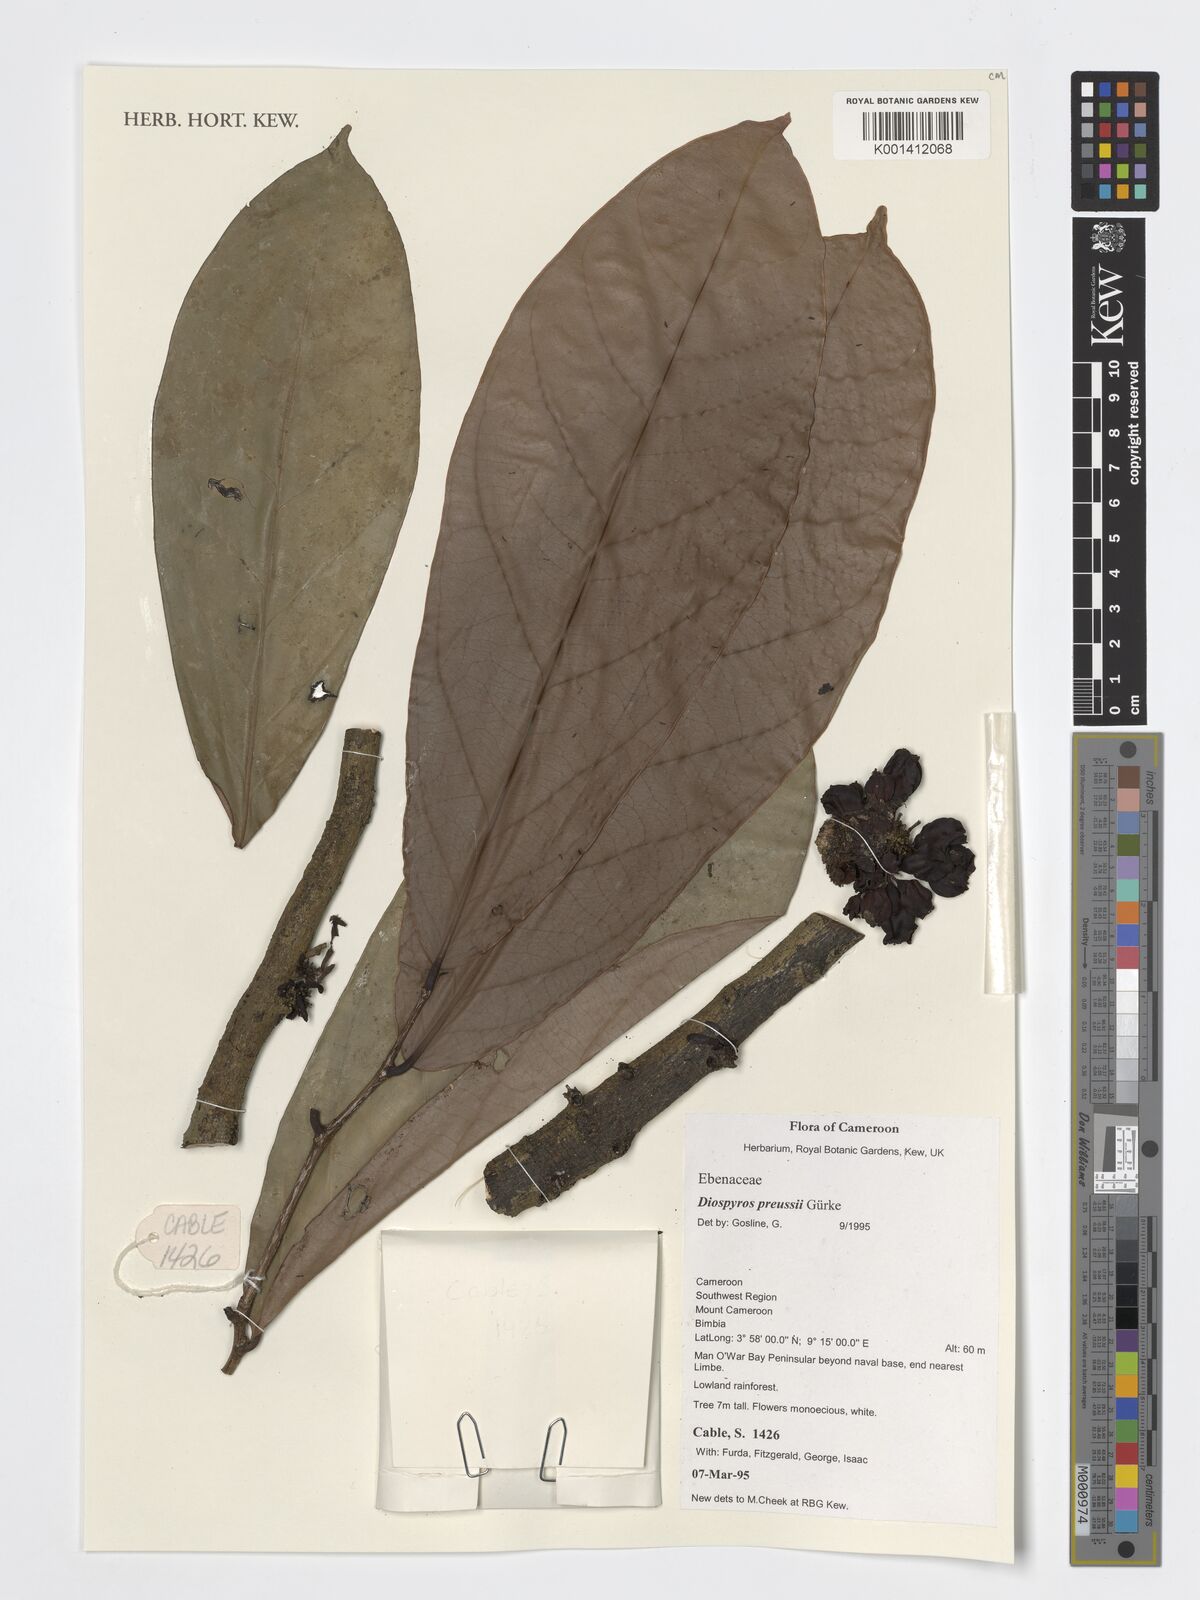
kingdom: Plantae
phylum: Tracheophyta
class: Magnoliopsida
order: Ericales
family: Ebenaceae
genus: Diospyros
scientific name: Diospyros preussii
